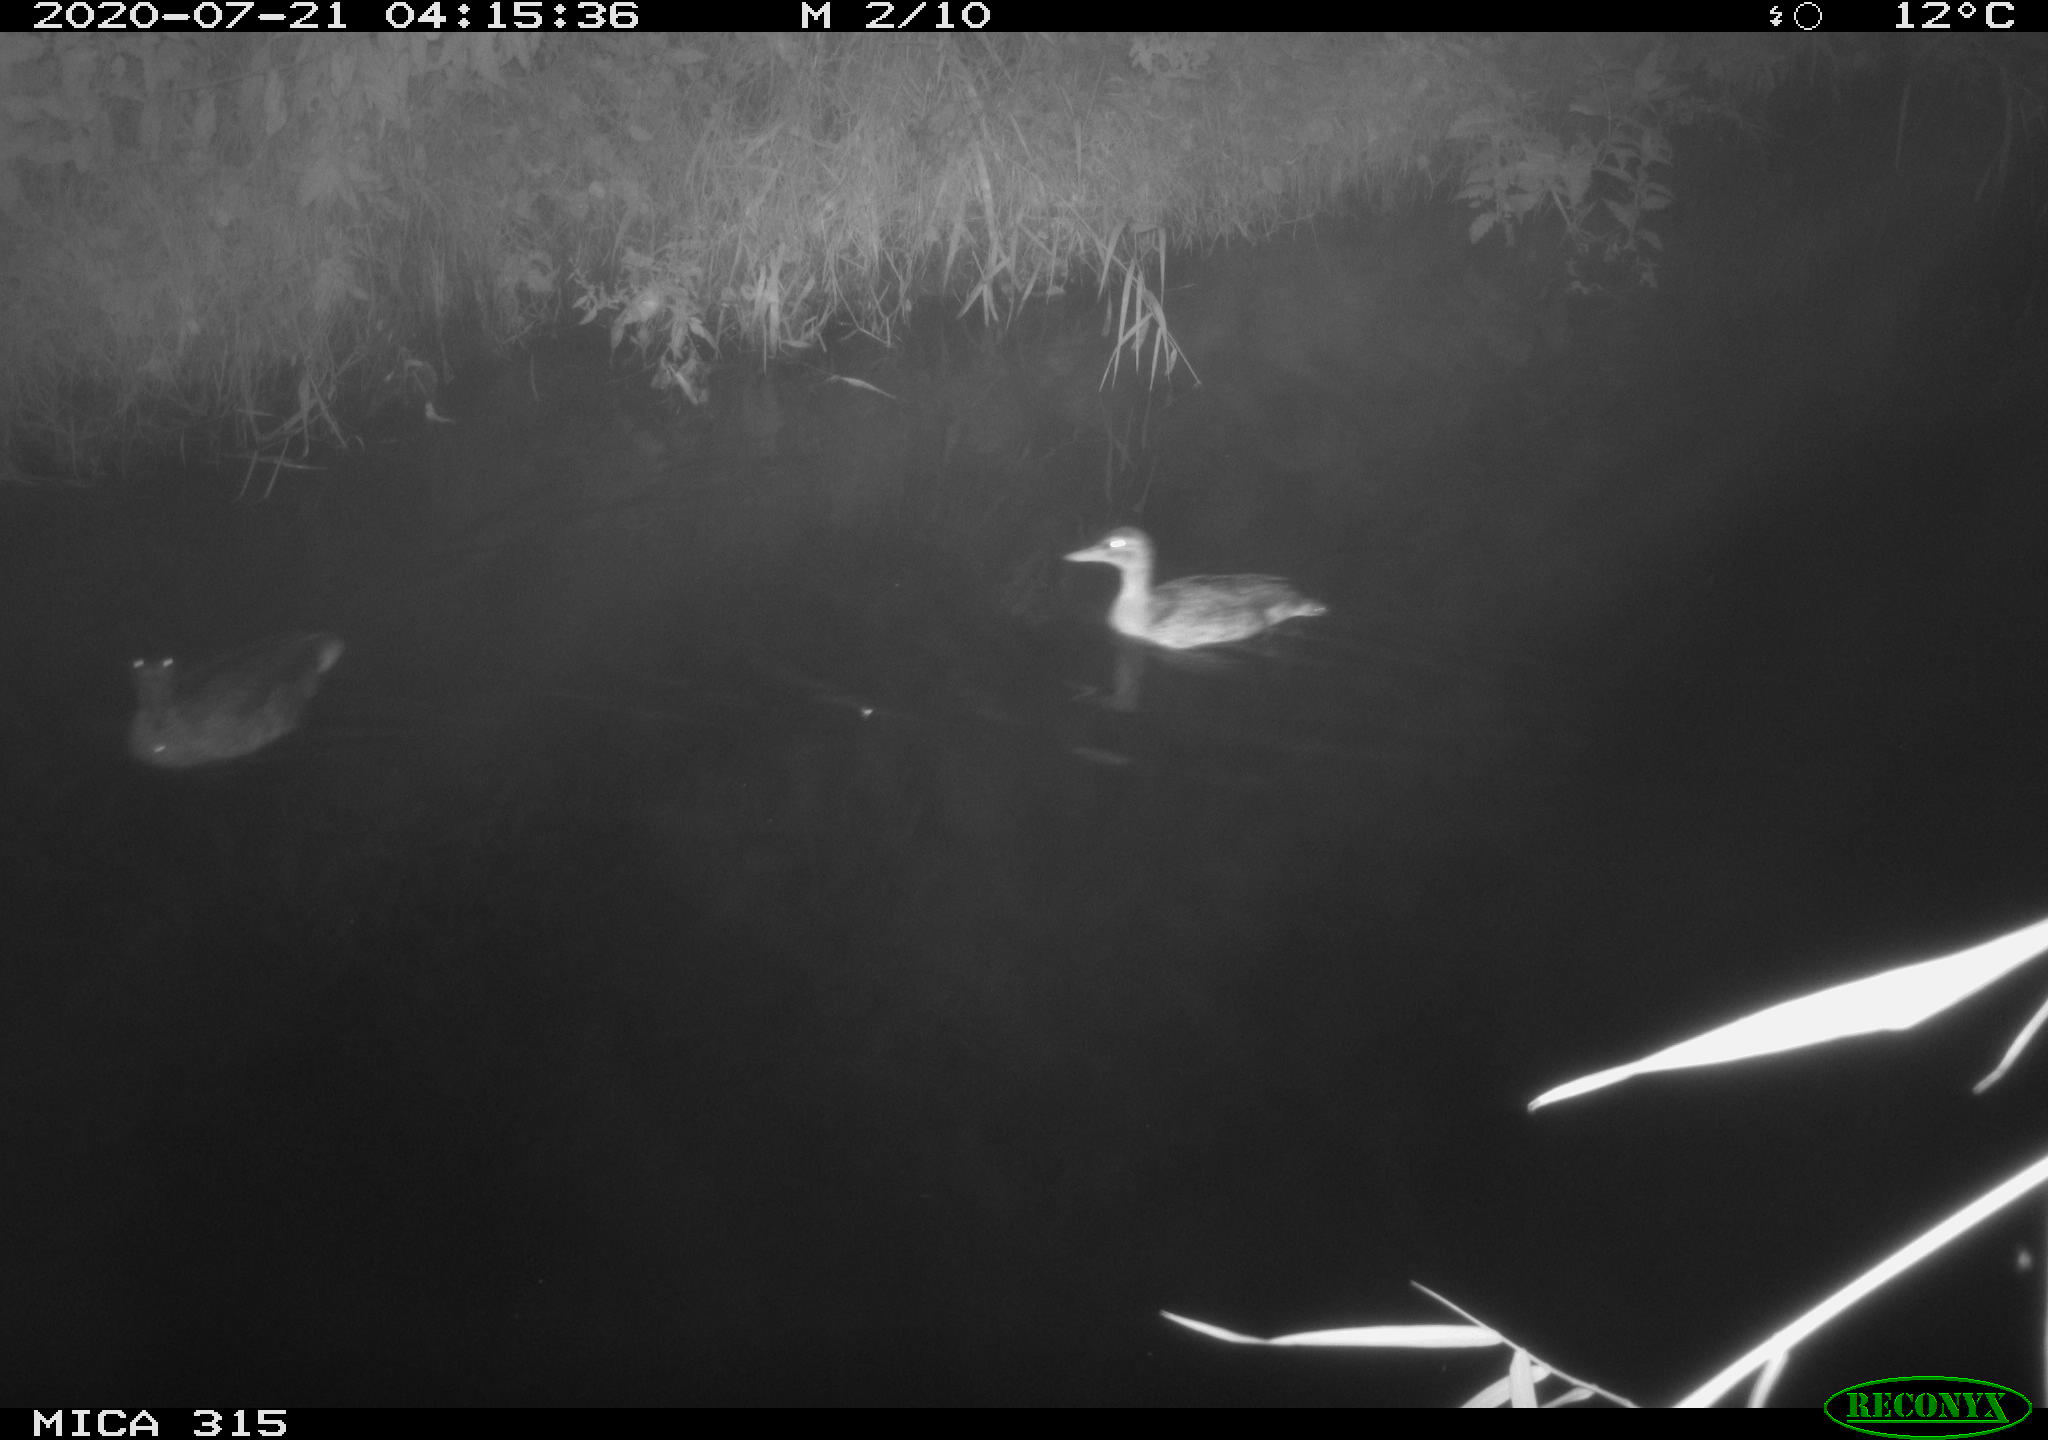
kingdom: Animalia
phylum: Chordata
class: Aves
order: Anseriformes
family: Anatidae
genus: Anas
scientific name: Anas platyrhynchos
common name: Mallard
